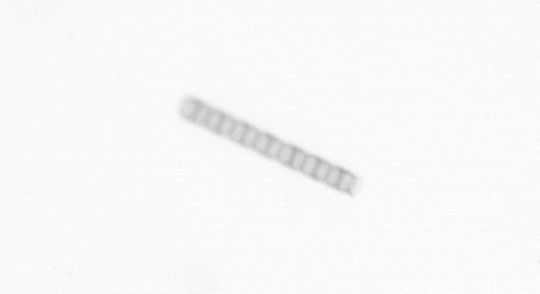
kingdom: Chromista
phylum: Ochrophyta
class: Bacillariophyceae
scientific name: Bacillariophyceae
